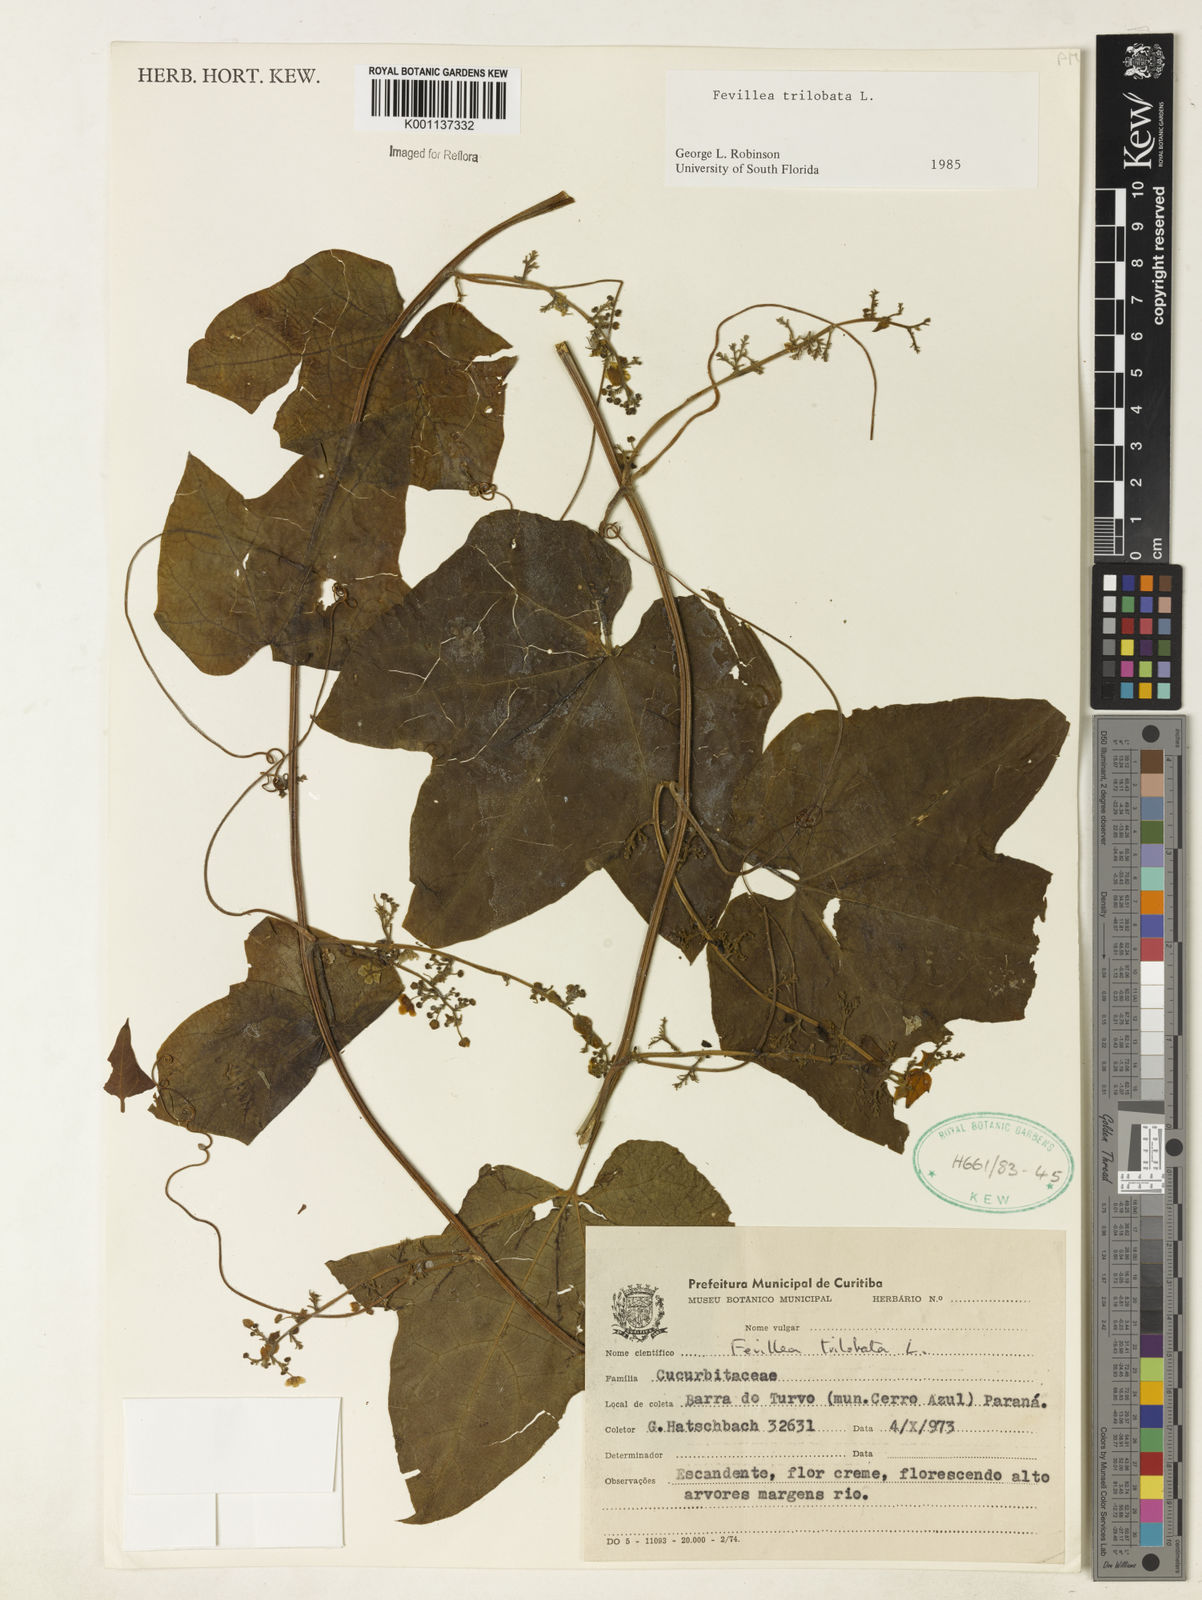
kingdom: Plantae
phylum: Tracheophyta
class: Magnoliopsida
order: Cucurbitales
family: Cucurbitaceae
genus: Fevillea
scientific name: Fevillea trilobata
